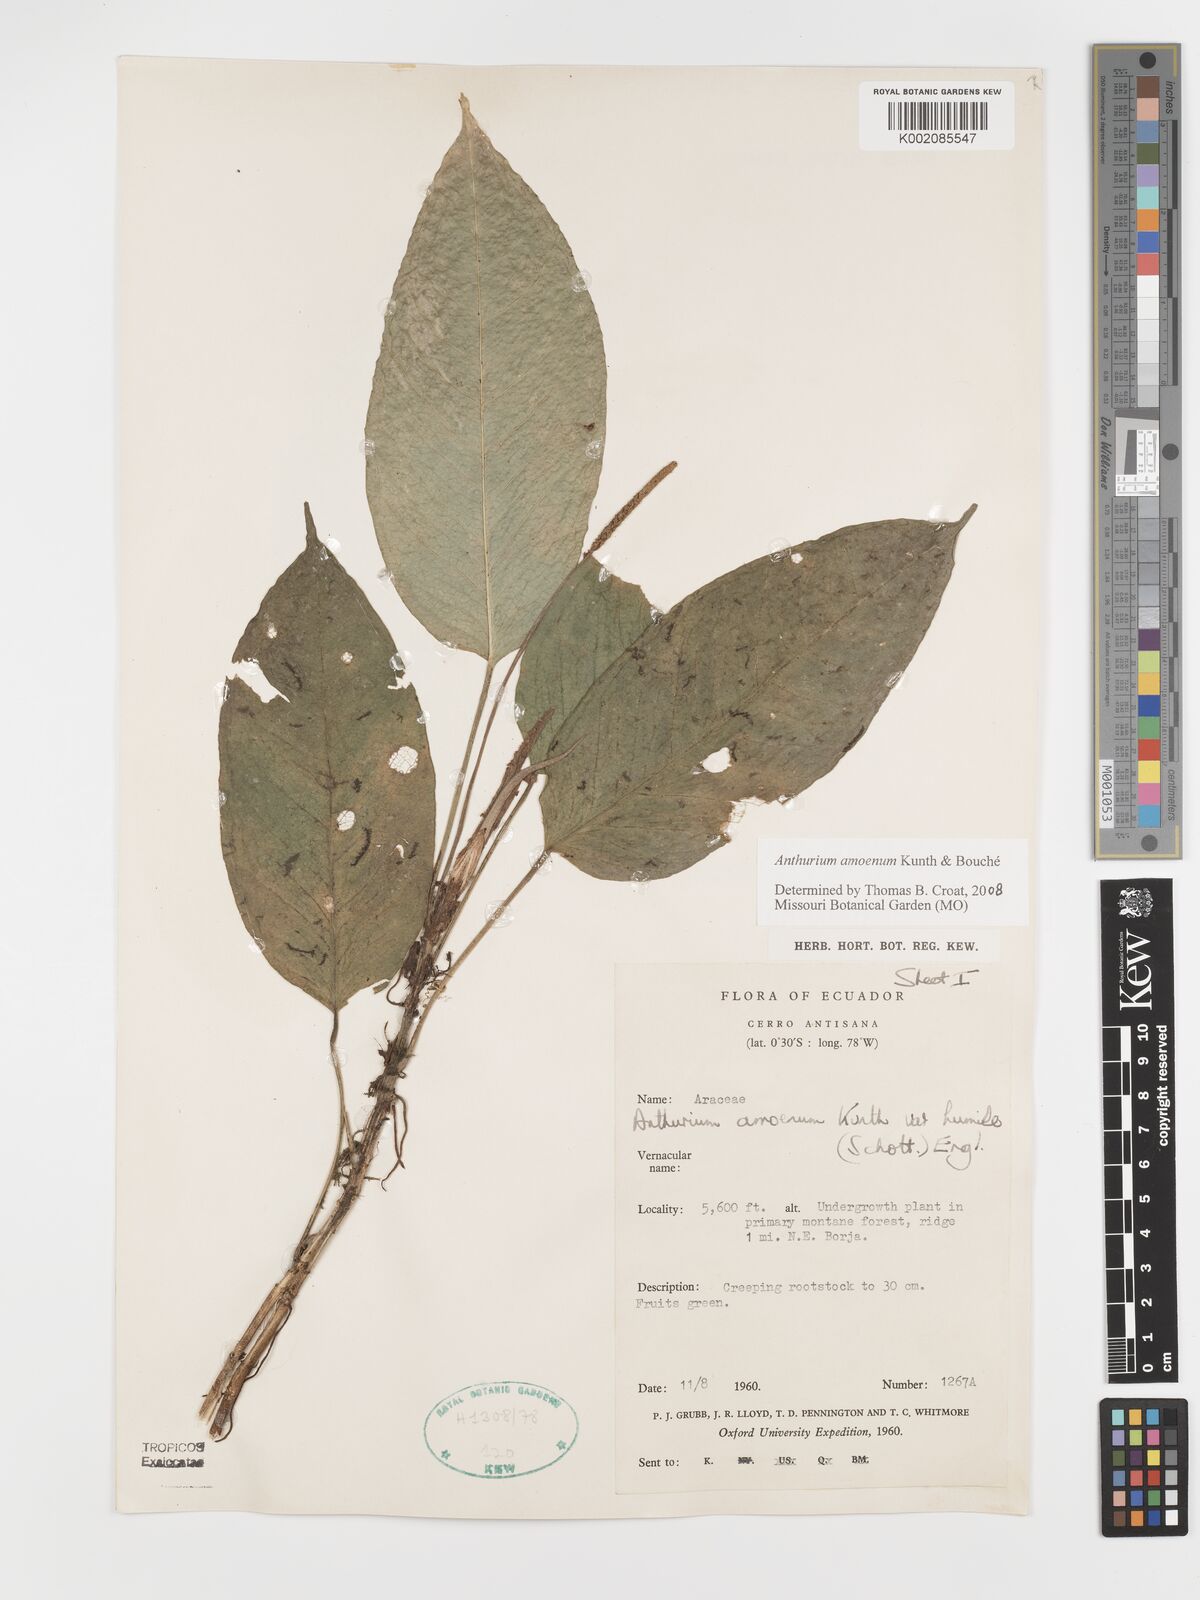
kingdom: Plantae
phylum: Tracheophyta
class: Liliopsida
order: Alismatales
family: Araceae
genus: Anthurium
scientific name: Anthurium amoenum
